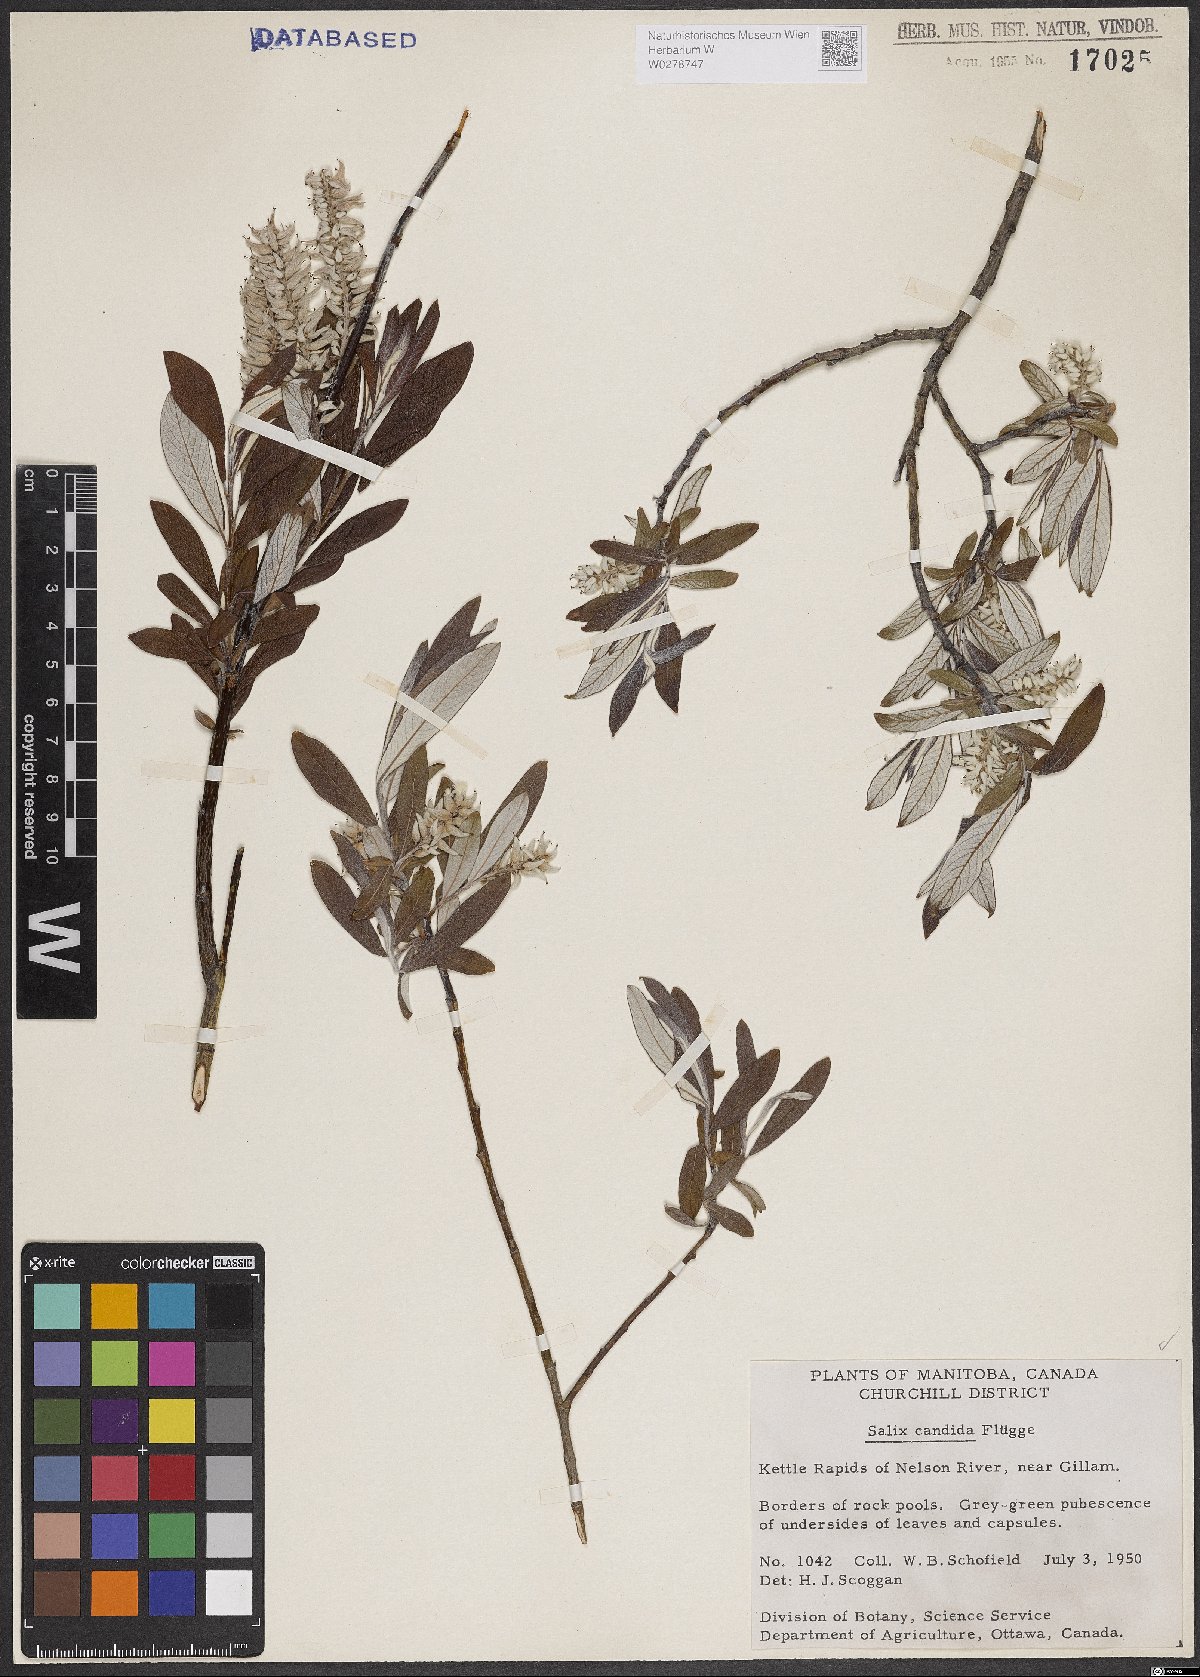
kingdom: Plantae
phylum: Tracheophyta
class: Magnoliopsida
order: Malpighiales
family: Salicaceae
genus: Salix
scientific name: Salix candida
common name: Hoary willow
